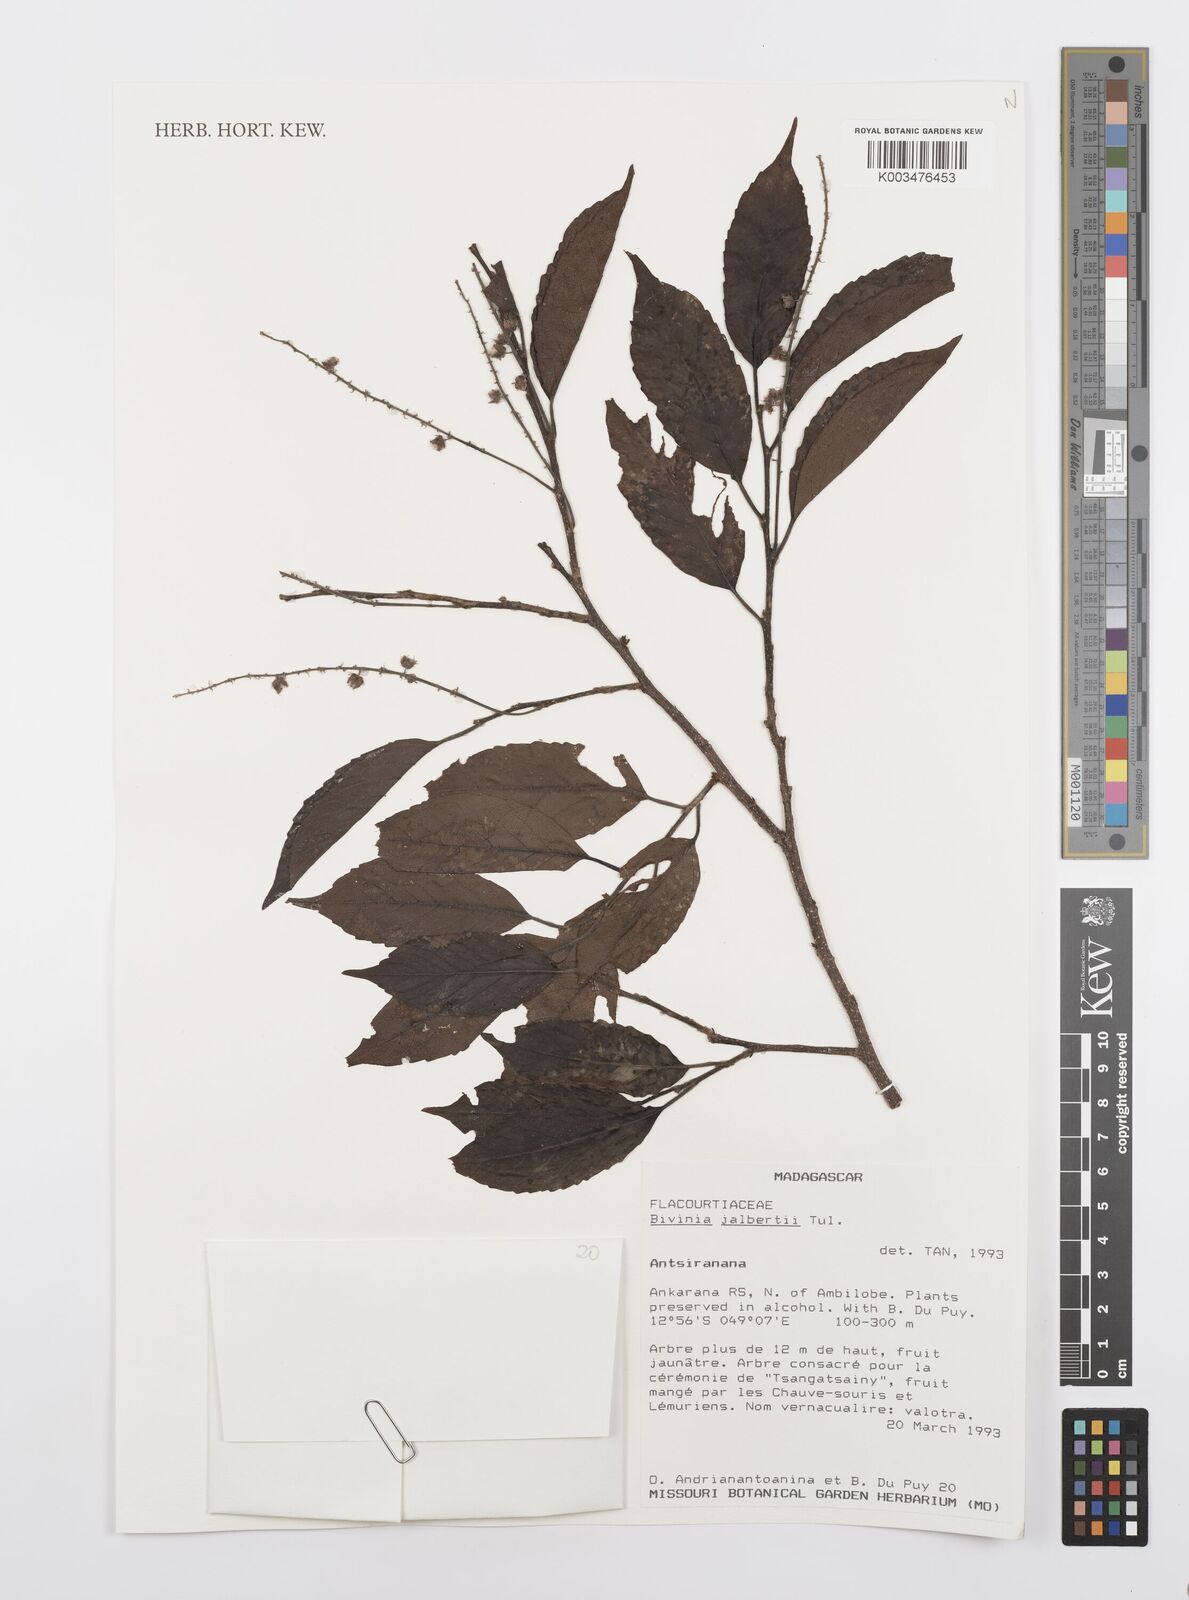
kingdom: Plantae
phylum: Tracheophyta
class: Magnoliopsida
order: Malpighiales
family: Salicaceae
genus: Bivinia
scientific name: Bivinia jalbertii
